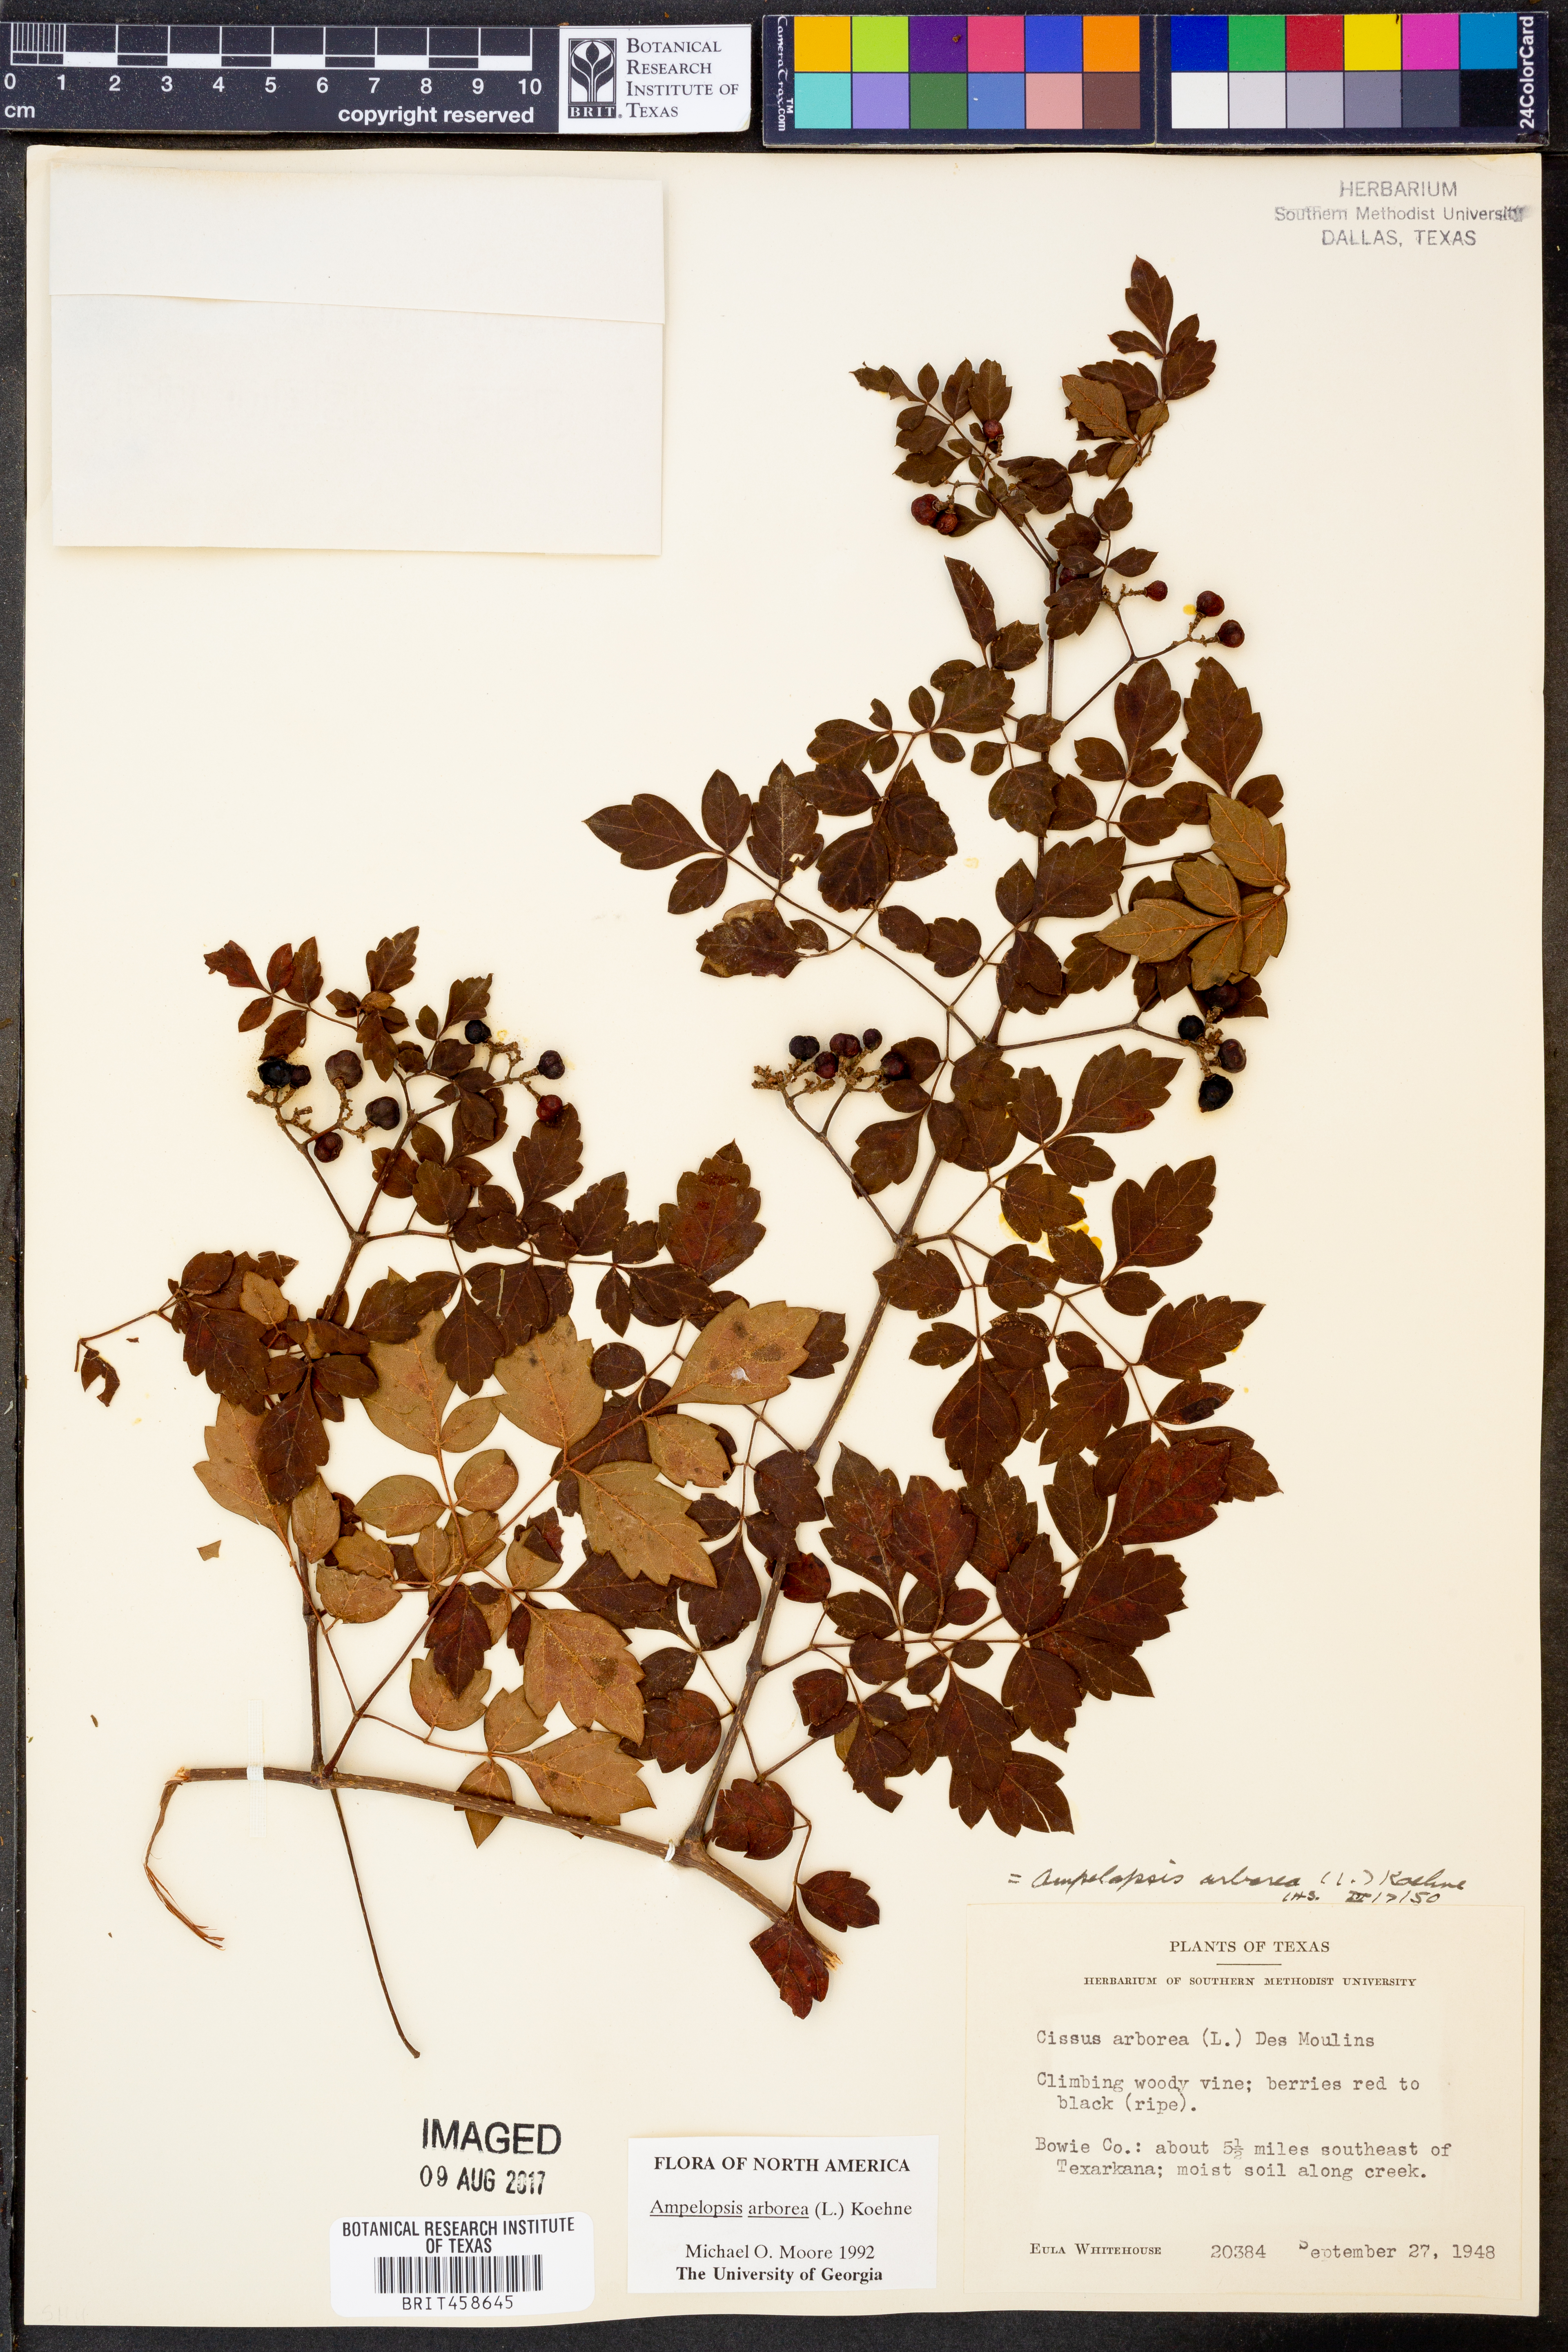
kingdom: Plantae
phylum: Tracheophyta
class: Magnoliopsida
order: Vitales
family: Vitaceae
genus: Nekemias
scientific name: Nekemias arborea
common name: Peppervine
